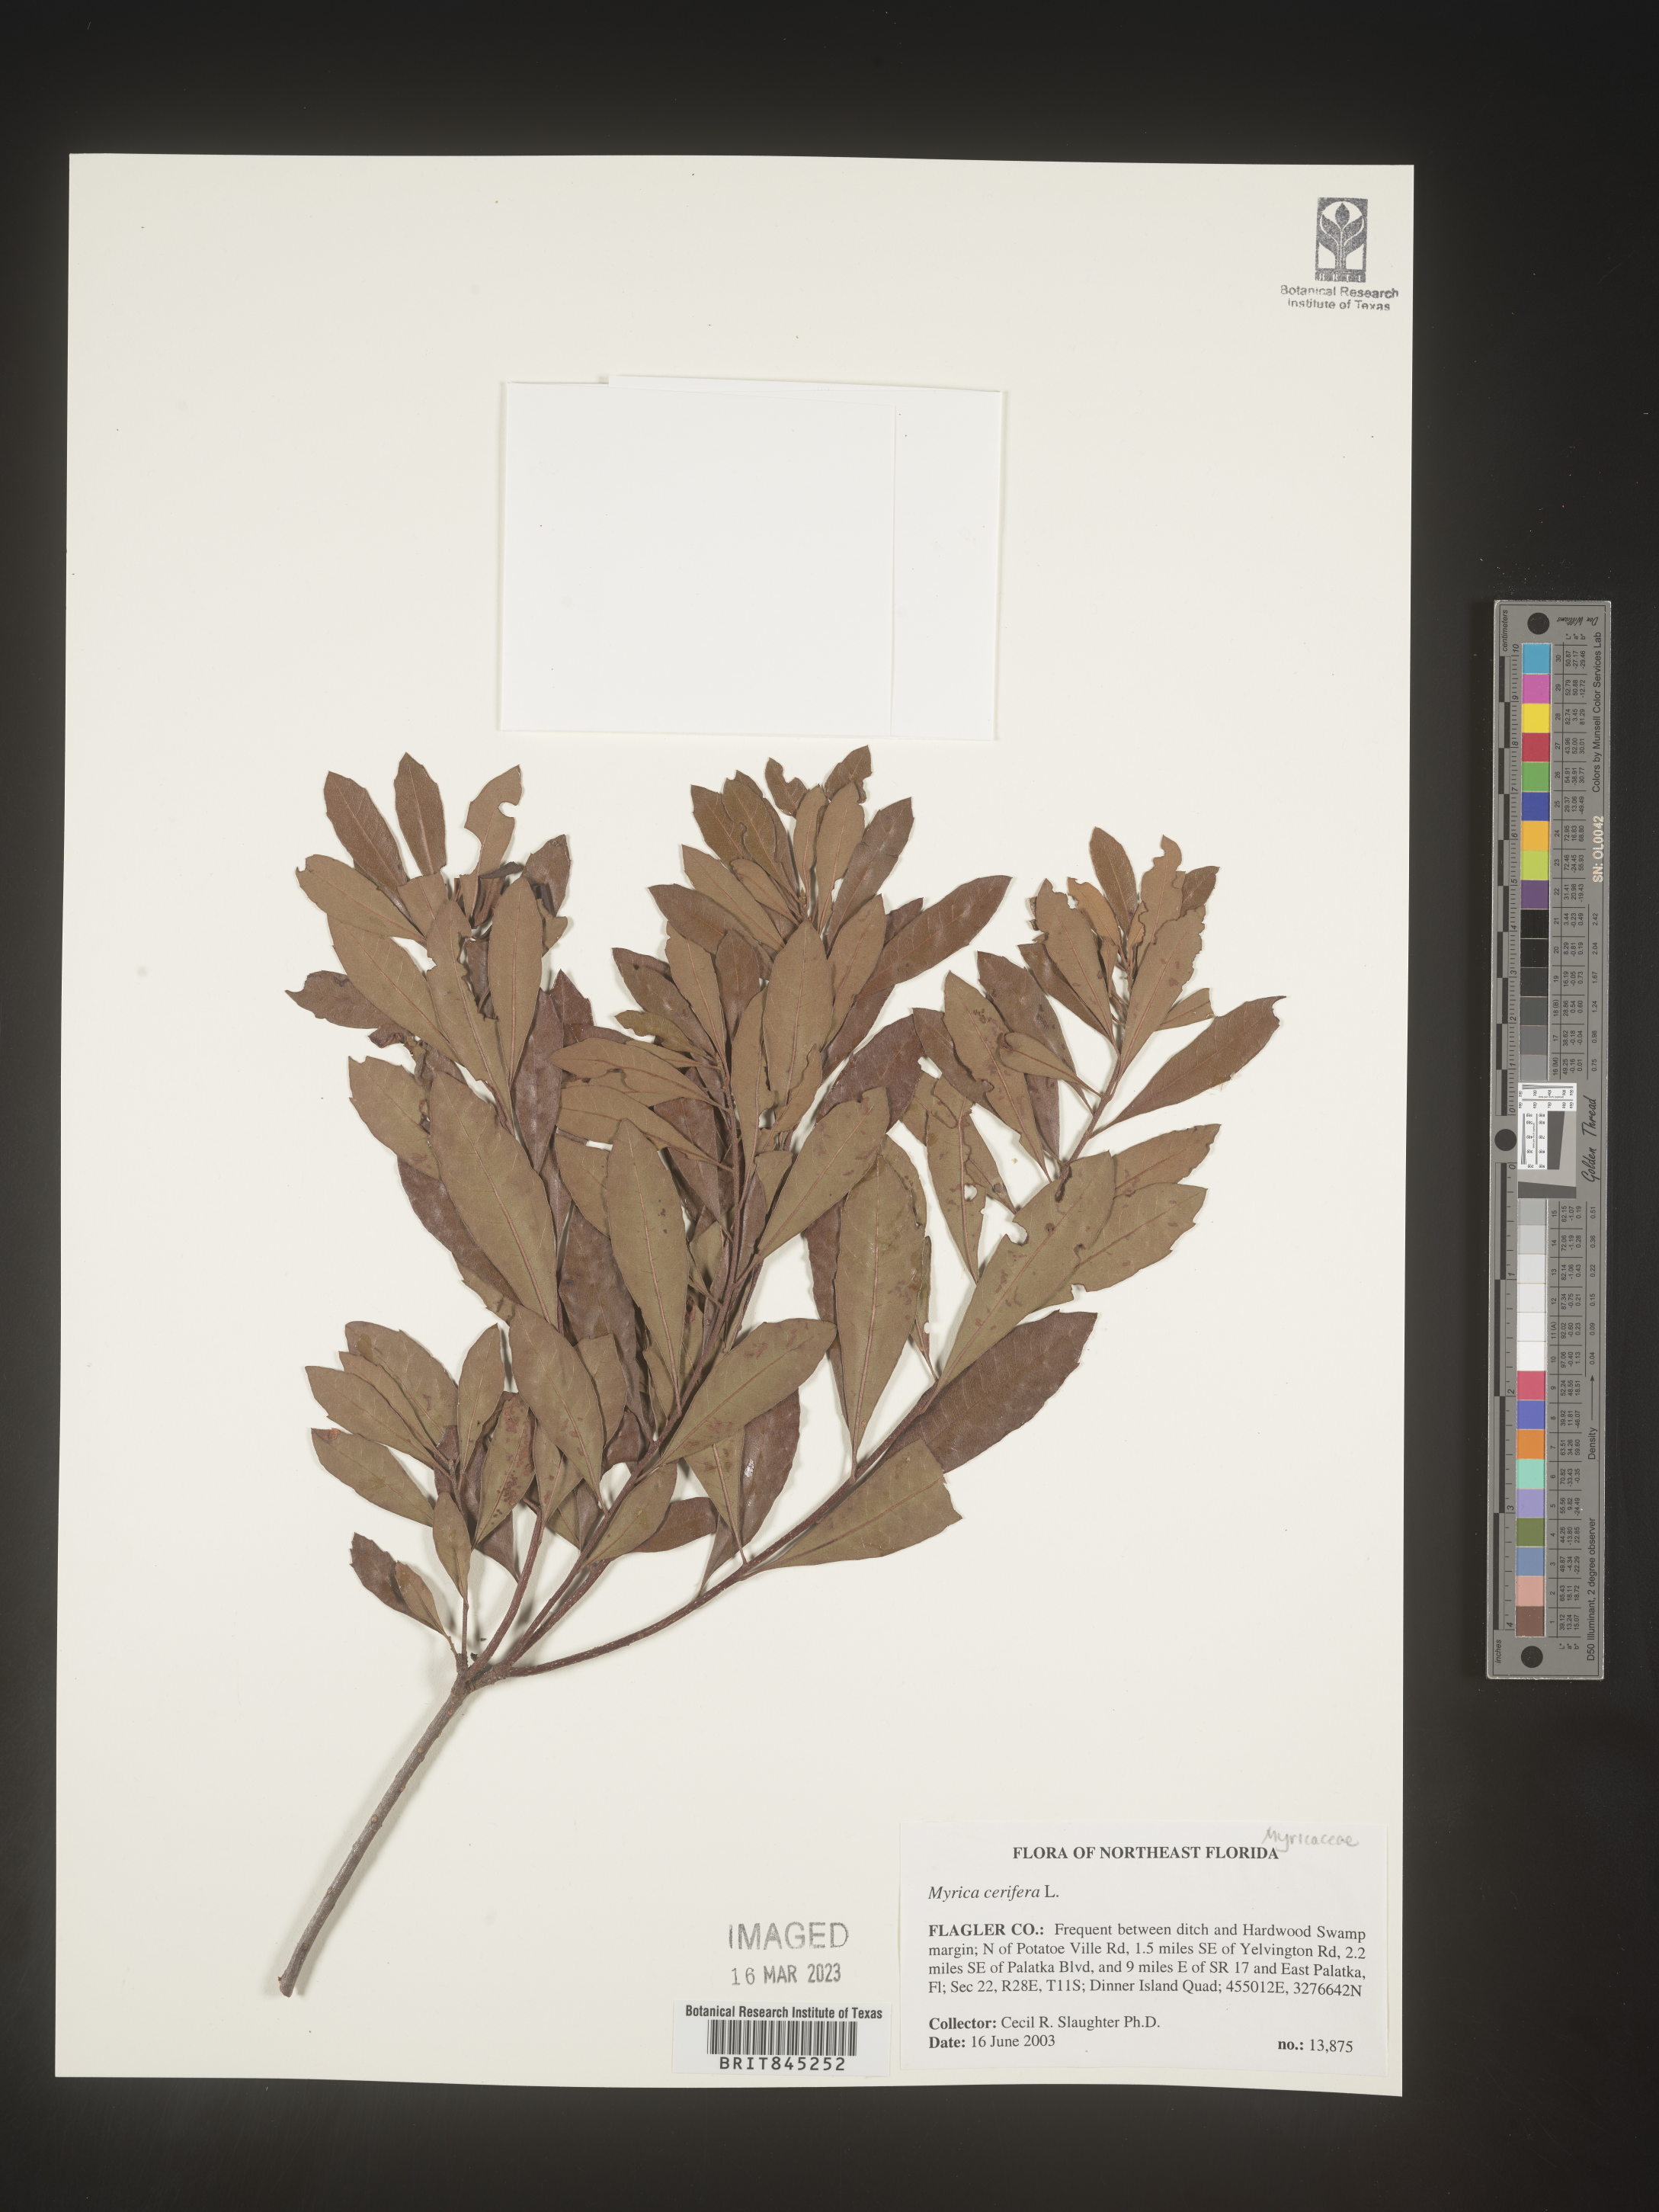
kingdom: Plantae
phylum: Tracheophyta
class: Magnoliopsida
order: Fagales
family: Myricaceae
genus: Morella
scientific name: Morella cerifera
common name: Wax myrtle
